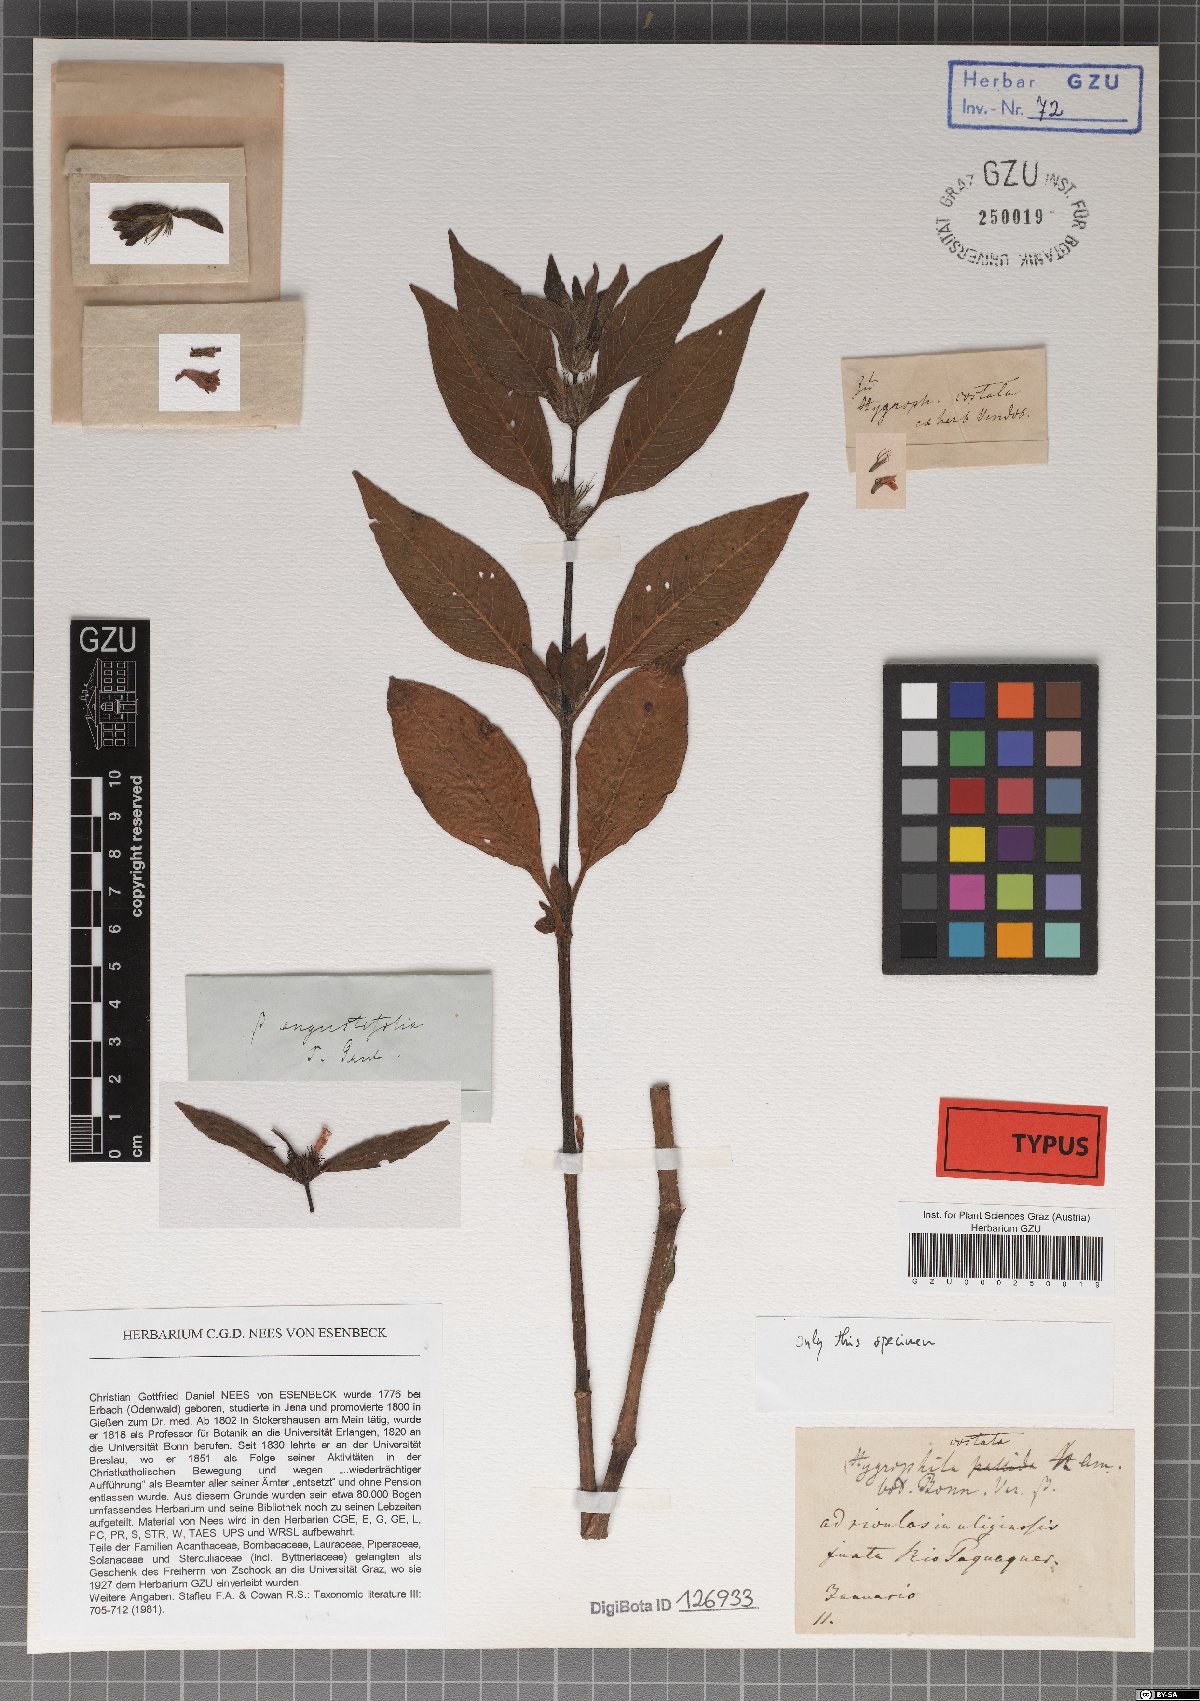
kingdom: Plantae
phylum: Tracheophyta
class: Magnoliopsida
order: Lamiales
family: Acanthaceae
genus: Hygrophila
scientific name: Hygrophila costata
